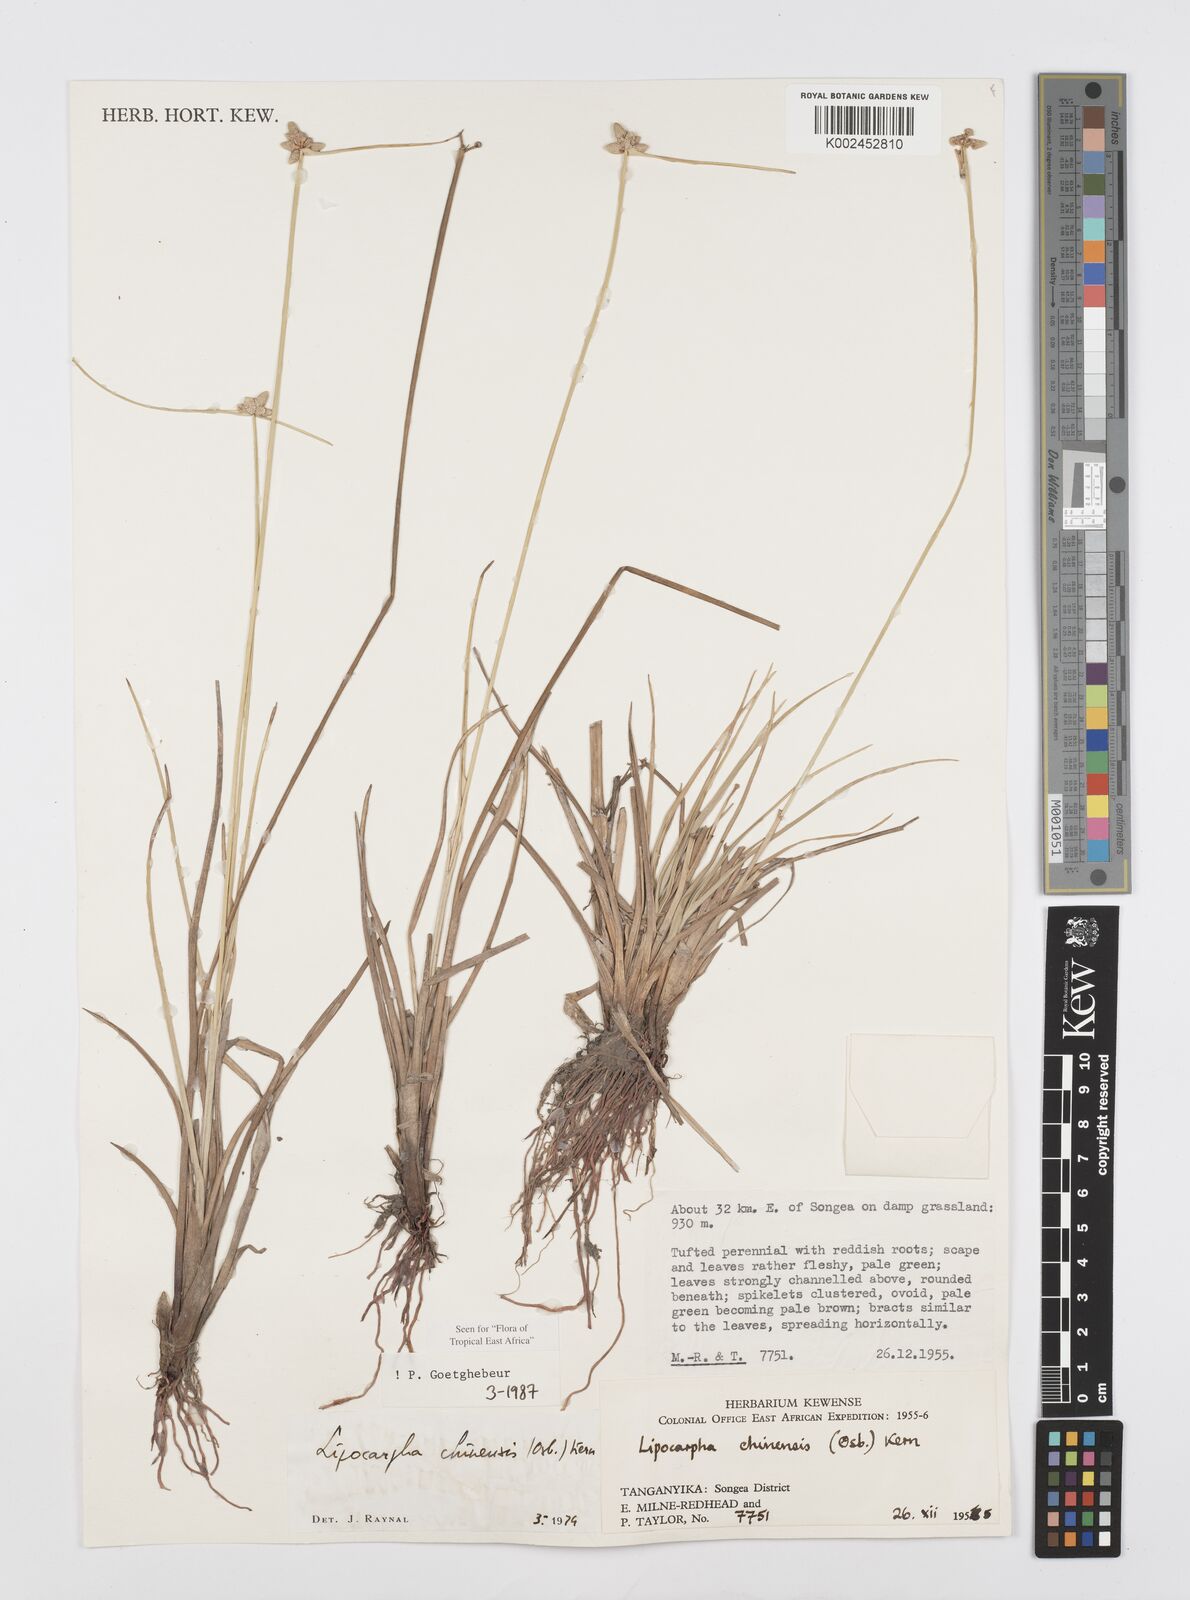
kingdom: Plantae
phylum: Tracheophyta
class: Liliopsida
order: Poales
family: Cyperaceae
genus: Cyperus
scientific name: Cyperus albescens
